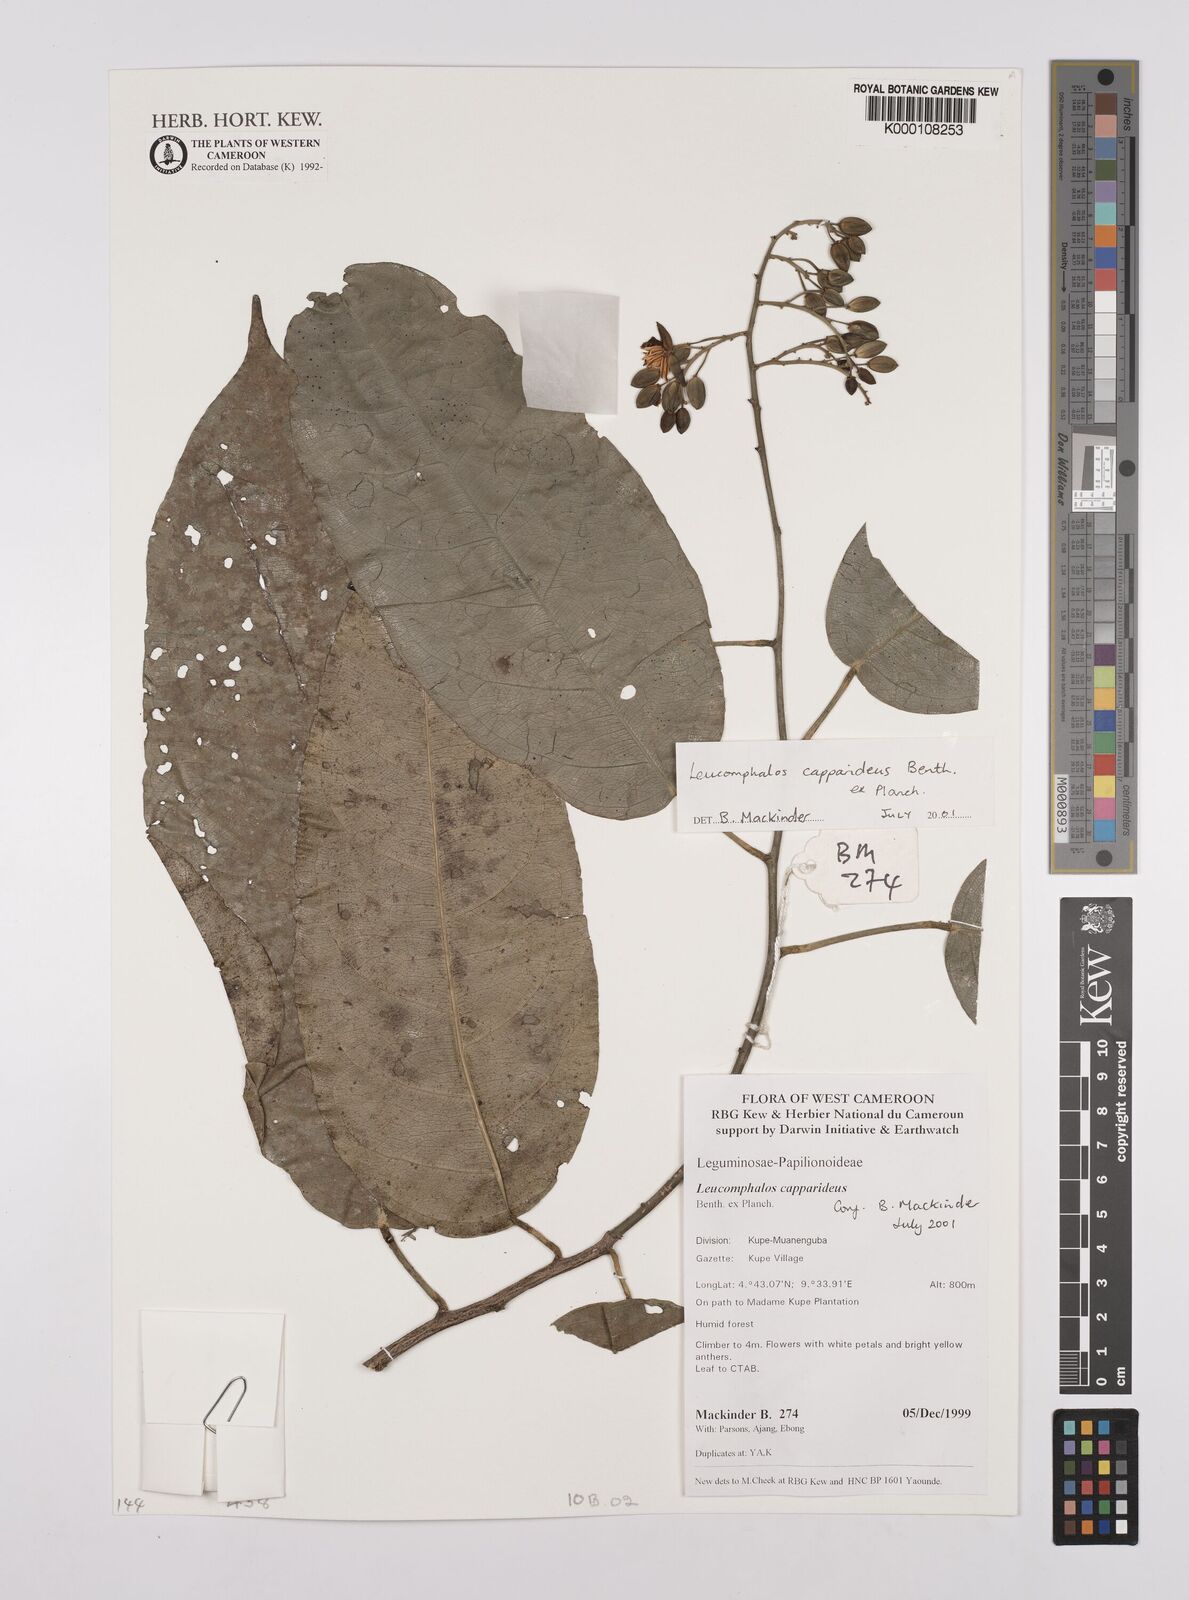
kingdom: Plantae
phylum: Tracheophyta
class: Magnoliopsida
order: Fabales
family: Fabaceae
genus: Leucomphalos
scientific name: Leucomphalos
